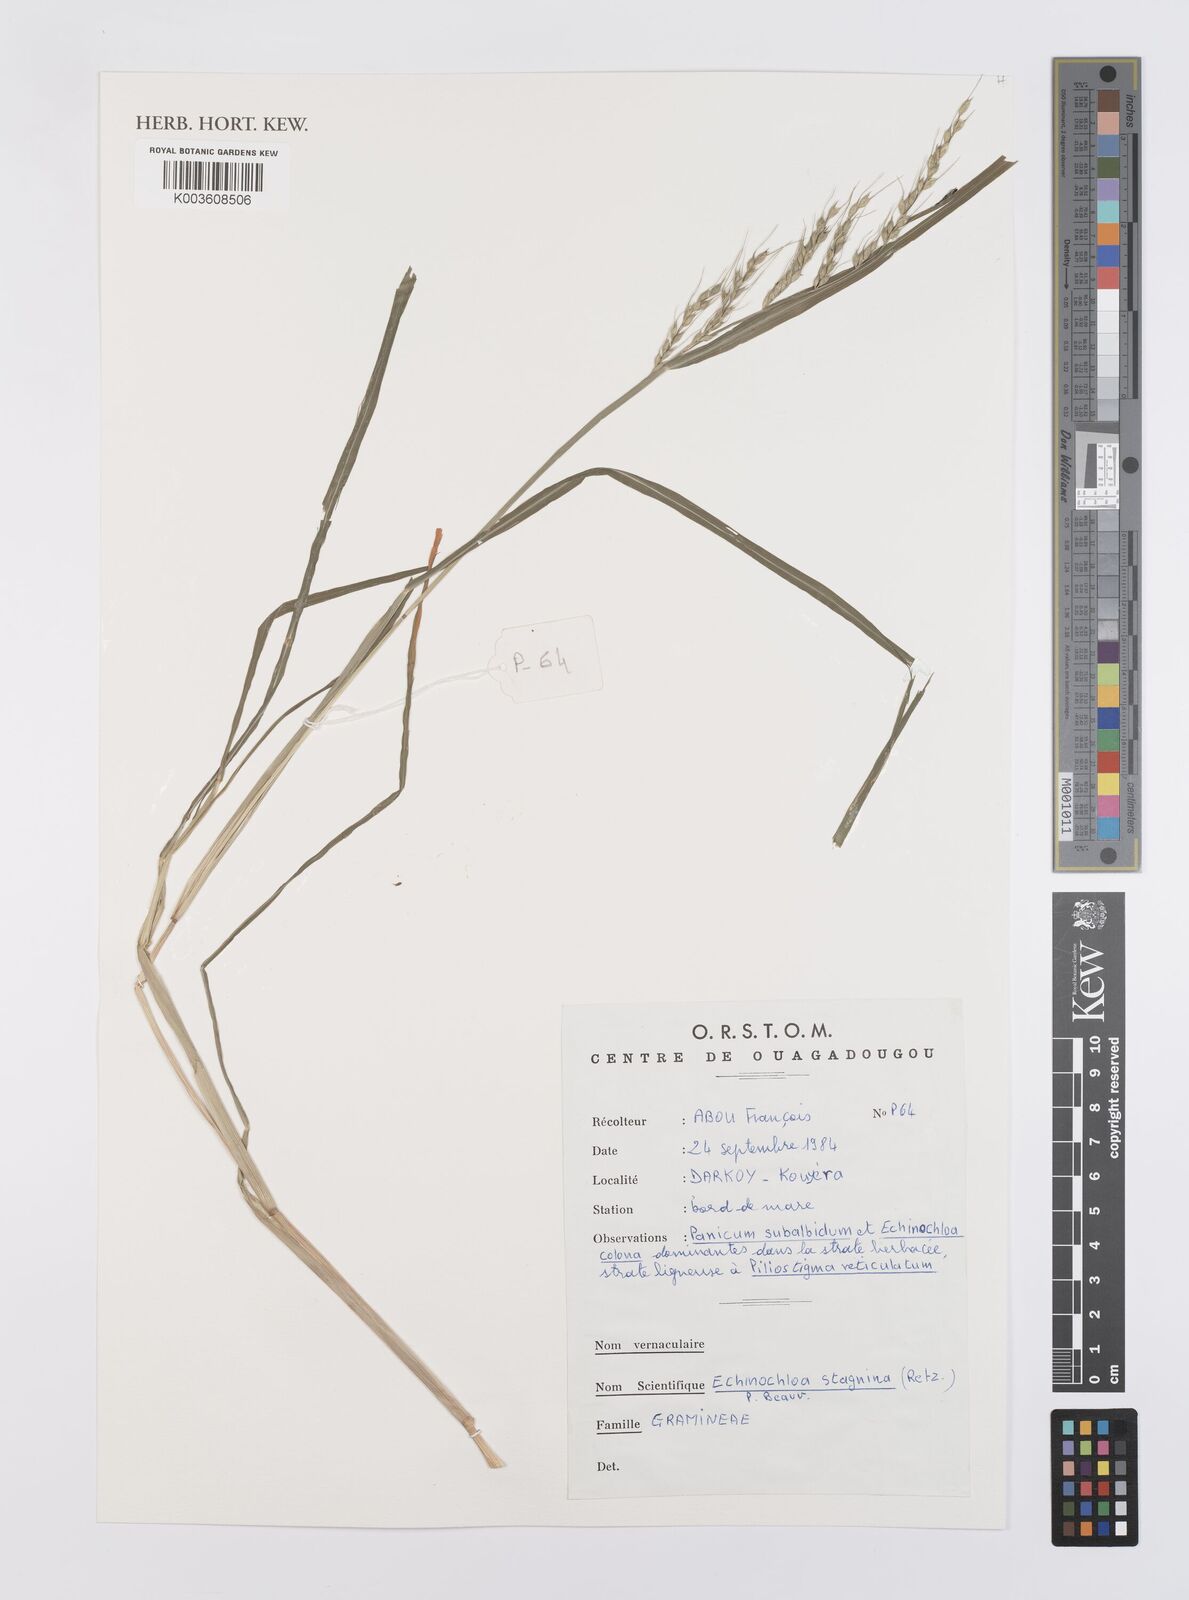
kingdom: Plantae
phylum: Tracheophyta
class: Liliopsida
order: Poales
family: Poaceae
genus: Echinochloa
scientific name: Echinochloa stagnina
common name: Burgu grass
